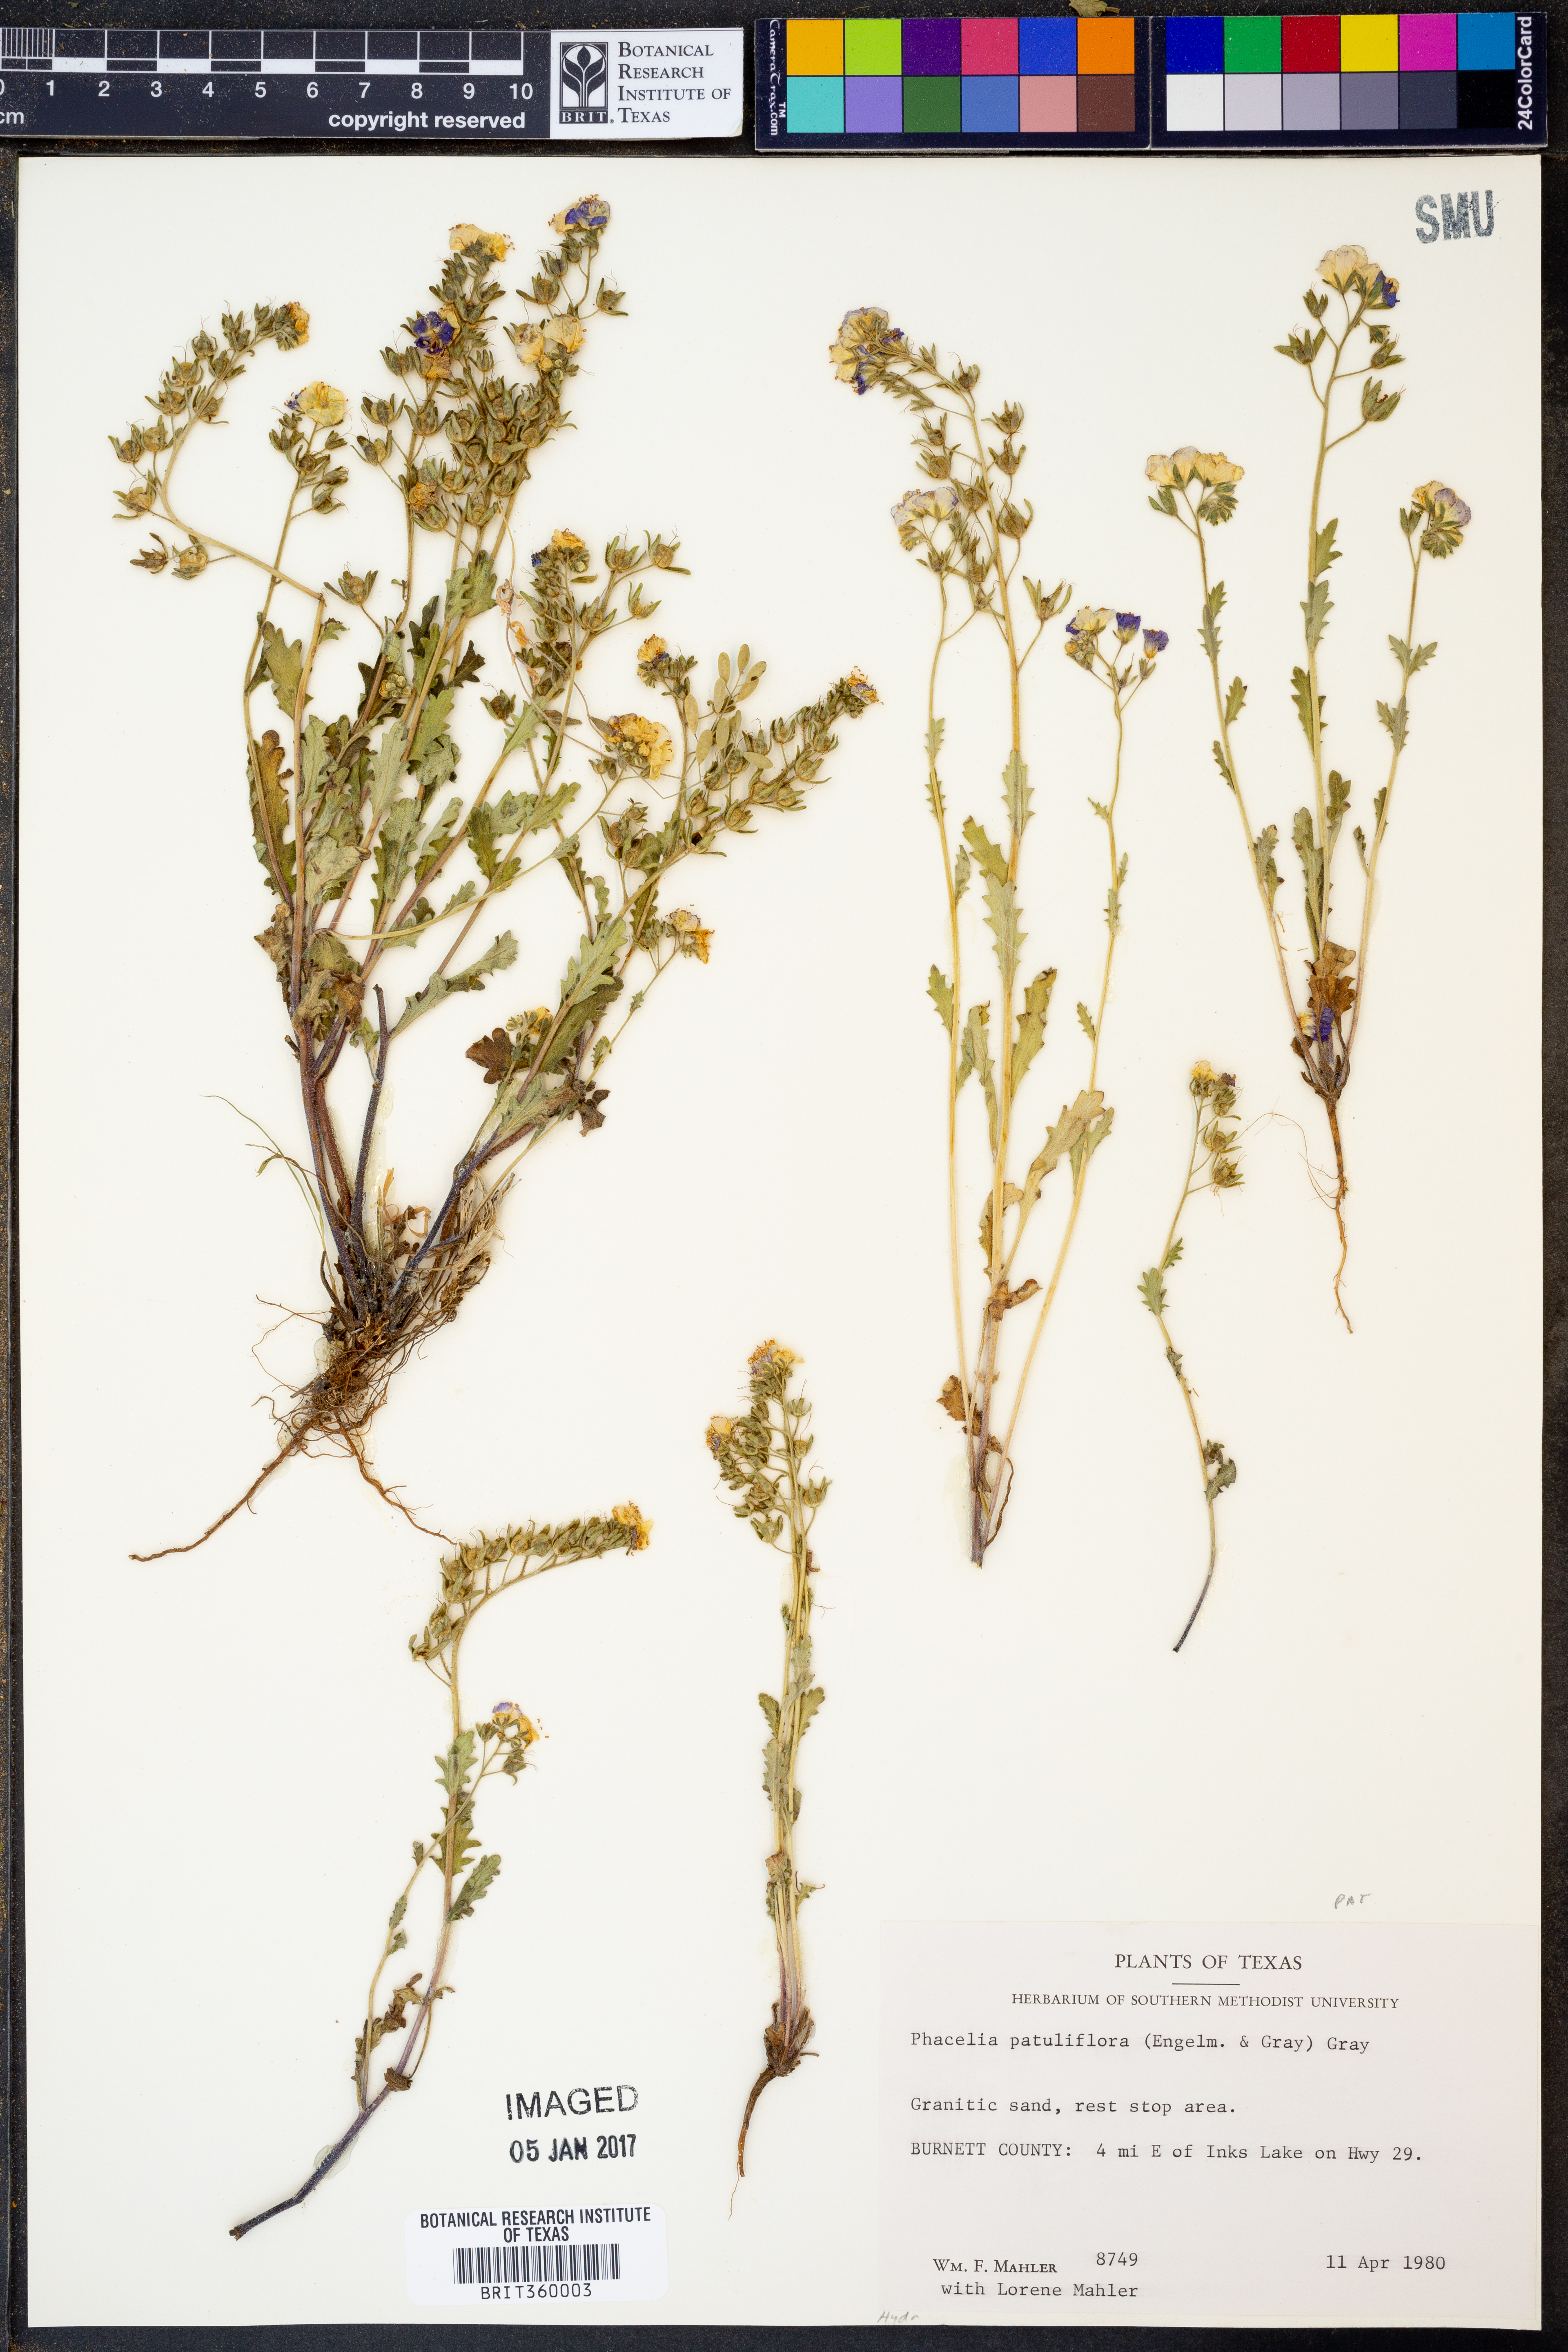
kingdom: Plantae
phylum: Tracheophyta
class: Magnoliopsida
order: Boraginales
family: Hydrophyllaceae
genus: Phacelia
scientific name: Phacelia patuliflora
